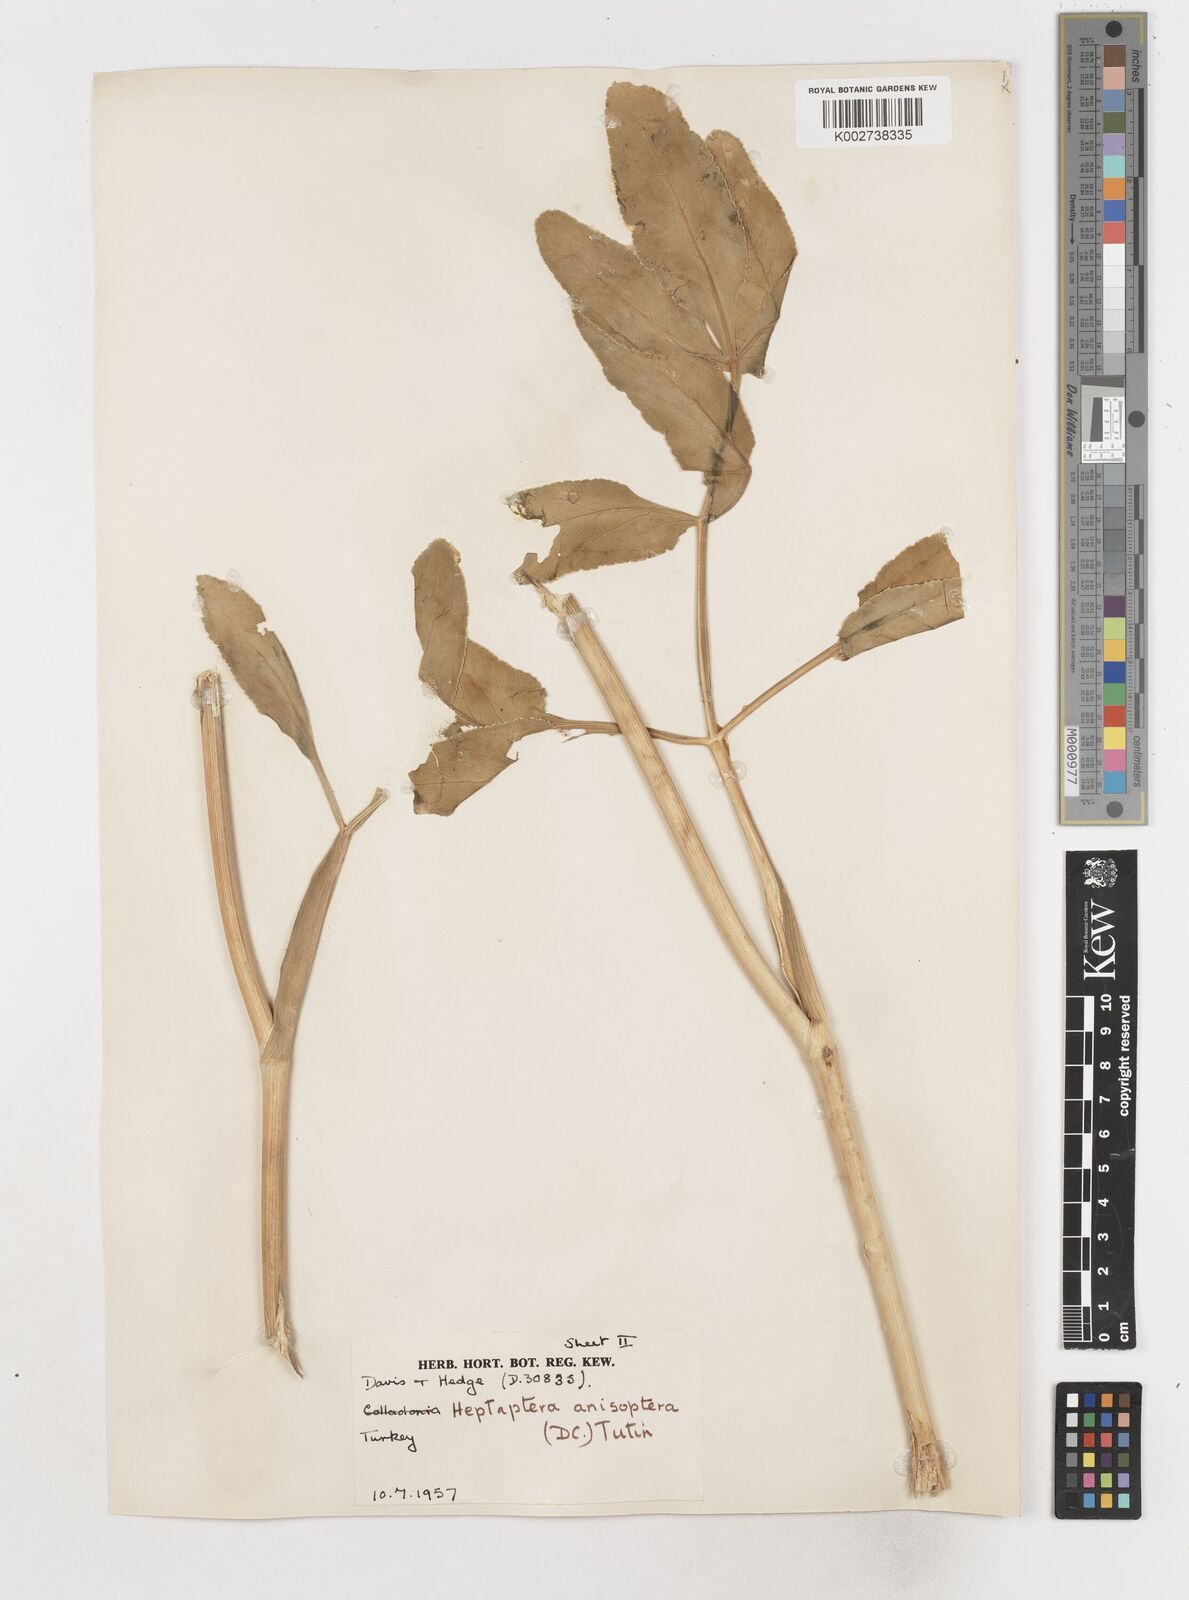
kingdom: Plantae
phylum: Tracheophyta
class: Magnoliopsida
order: Apiales
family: Apiaceae
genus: Heptaptera
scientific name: Heptaptera
